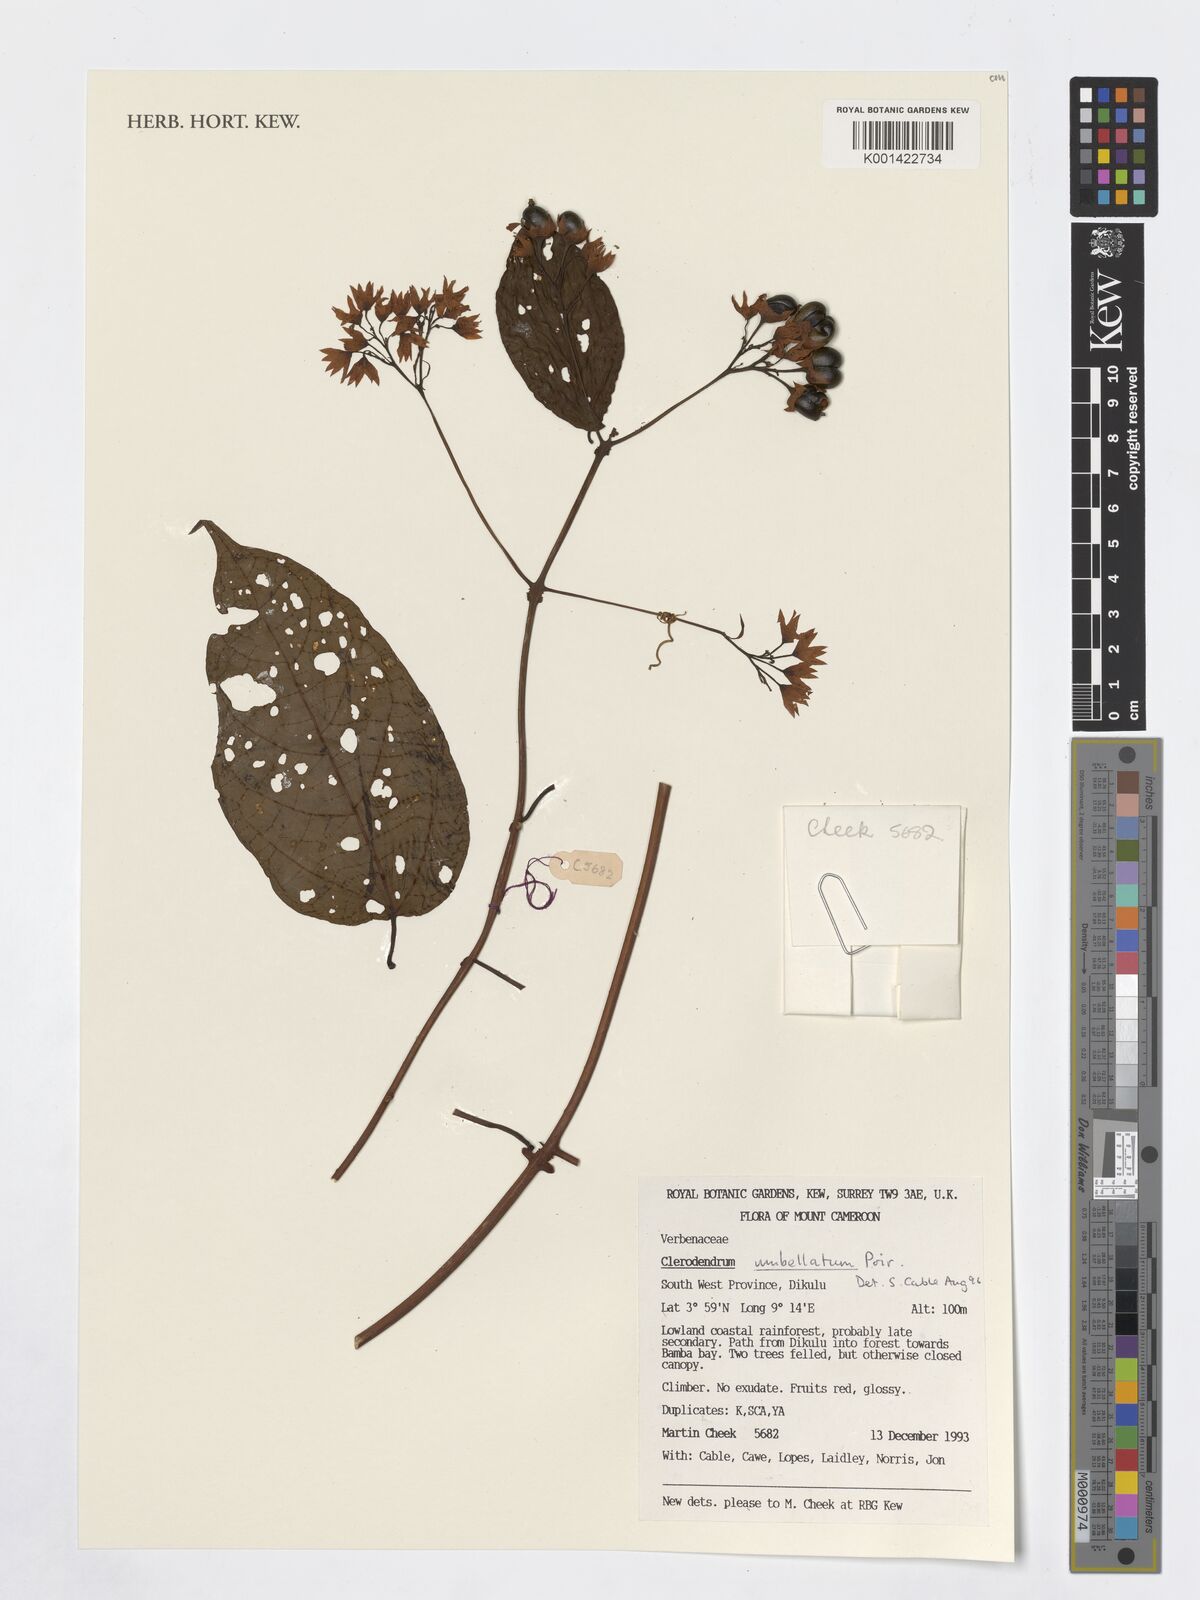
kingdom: Plantae
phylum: Tracheophyta
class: Magnoliopsida
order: Lamiales
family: Lamiaceae
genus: Clerodendrum
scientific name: Clerodendrum umbellatum
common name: Umbel clerodendrum
